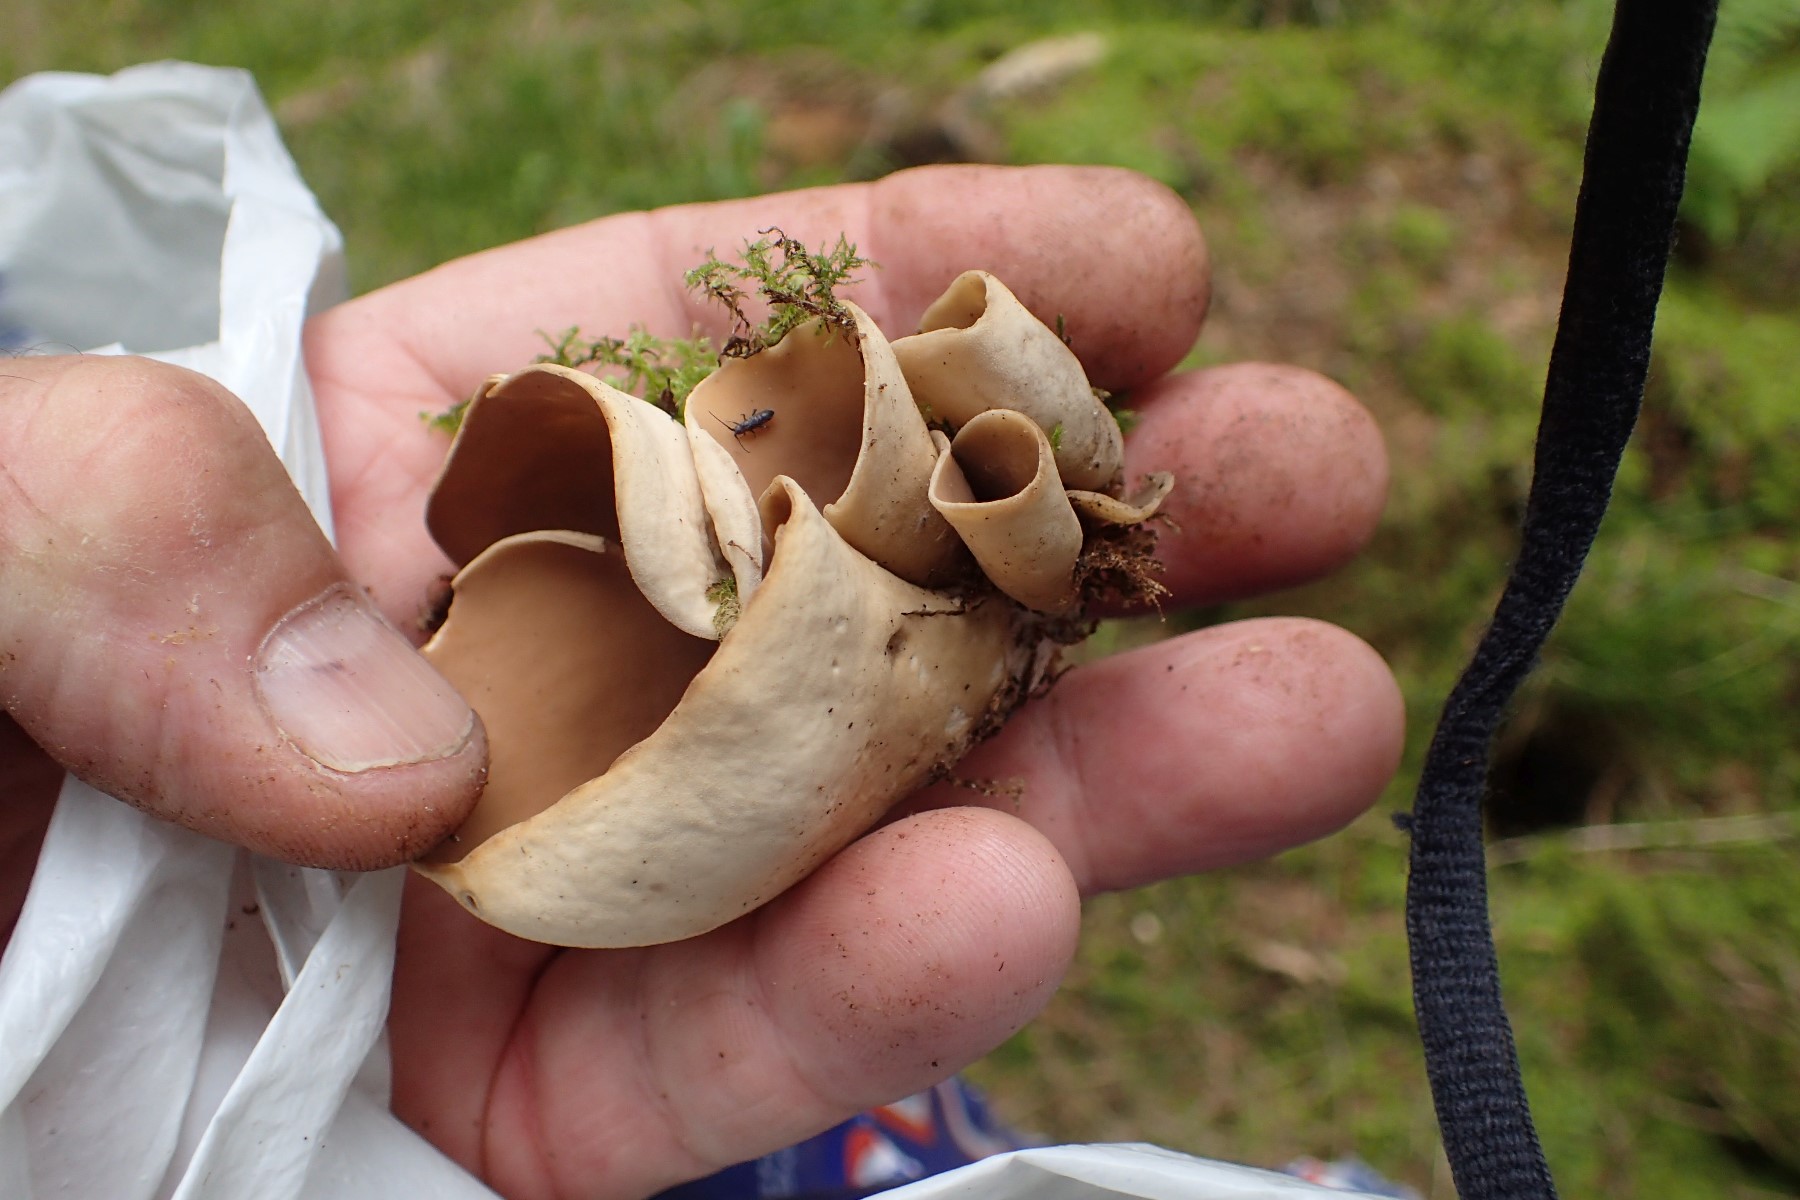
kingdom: Fungi
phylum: Ascomycota
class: Pezizomycetes
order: Pezizales
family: Otideaceae
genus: Otidea
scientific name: Otidea alutacea
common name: læder-ørebæger
